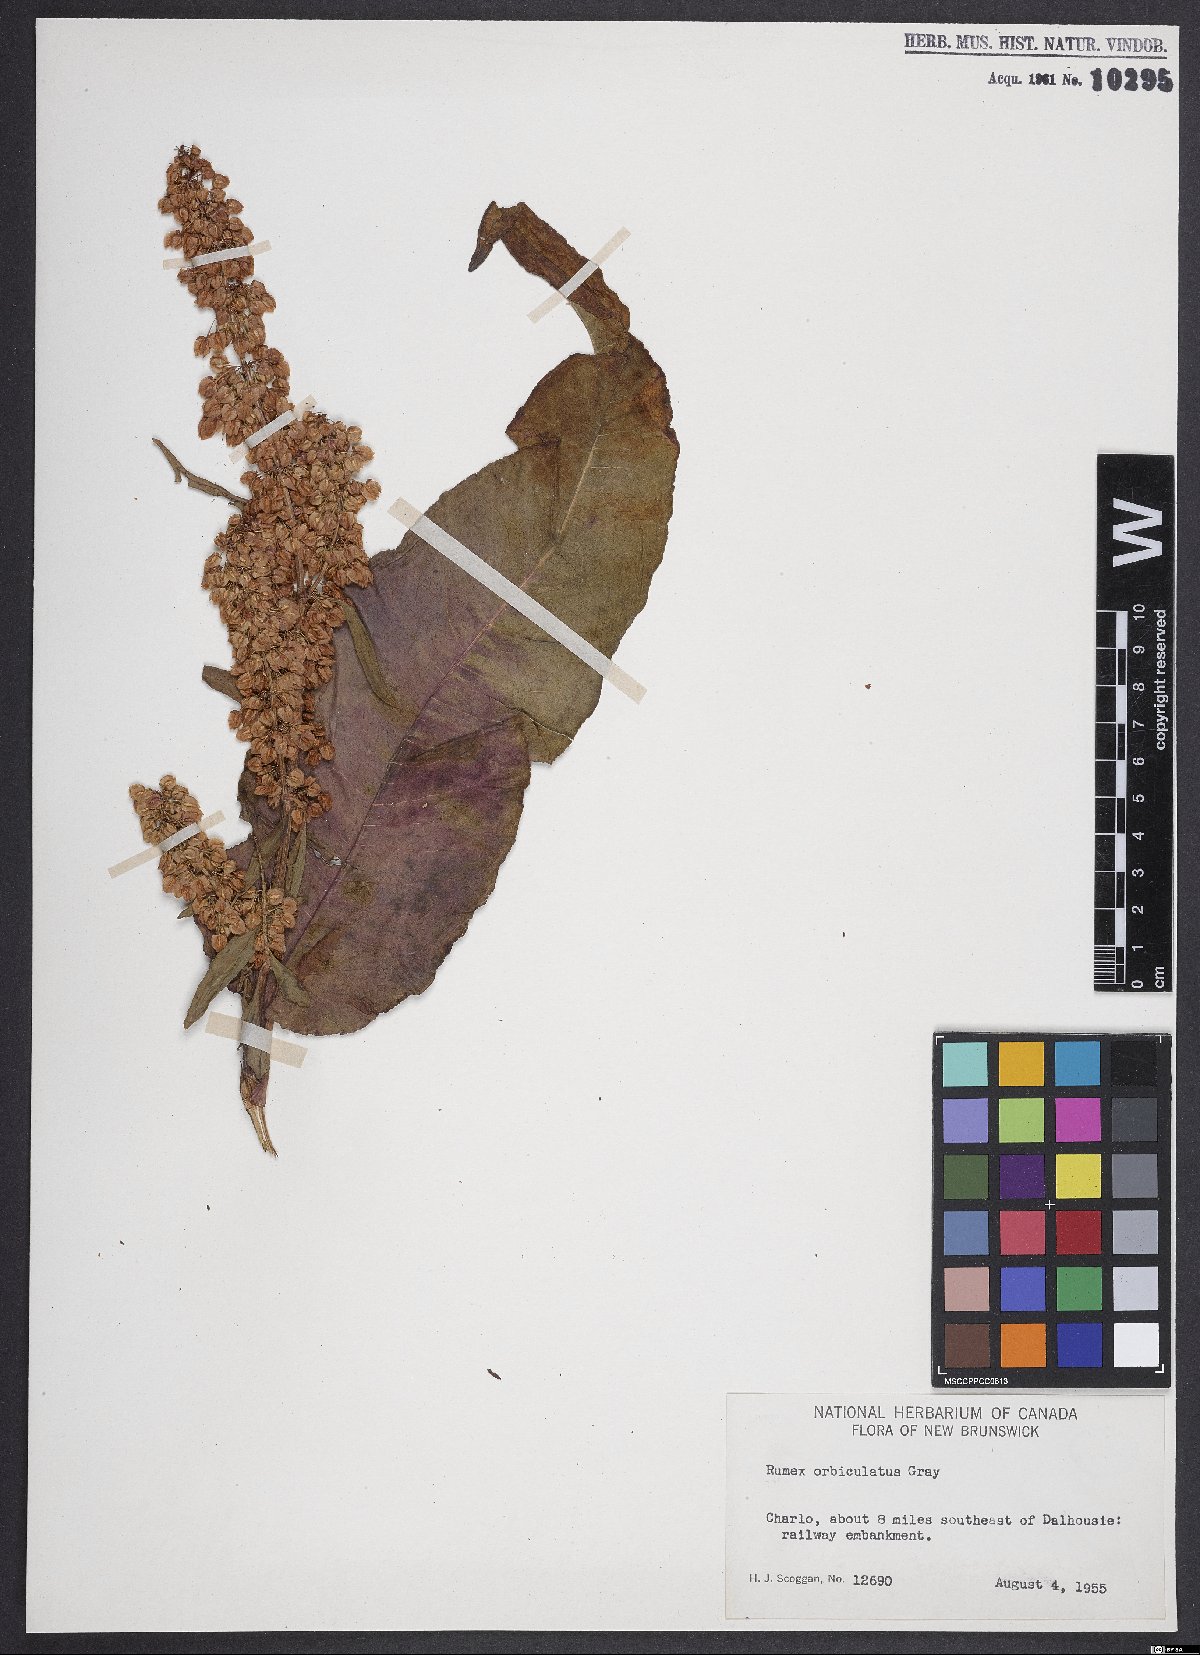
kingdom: Plantae
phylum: Tracheophyta
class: Magnoliopsida
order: Caryophyllales
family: Polygonaceae
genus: Rumex
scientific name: Rumex orbiculatus
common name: Greater water dock
